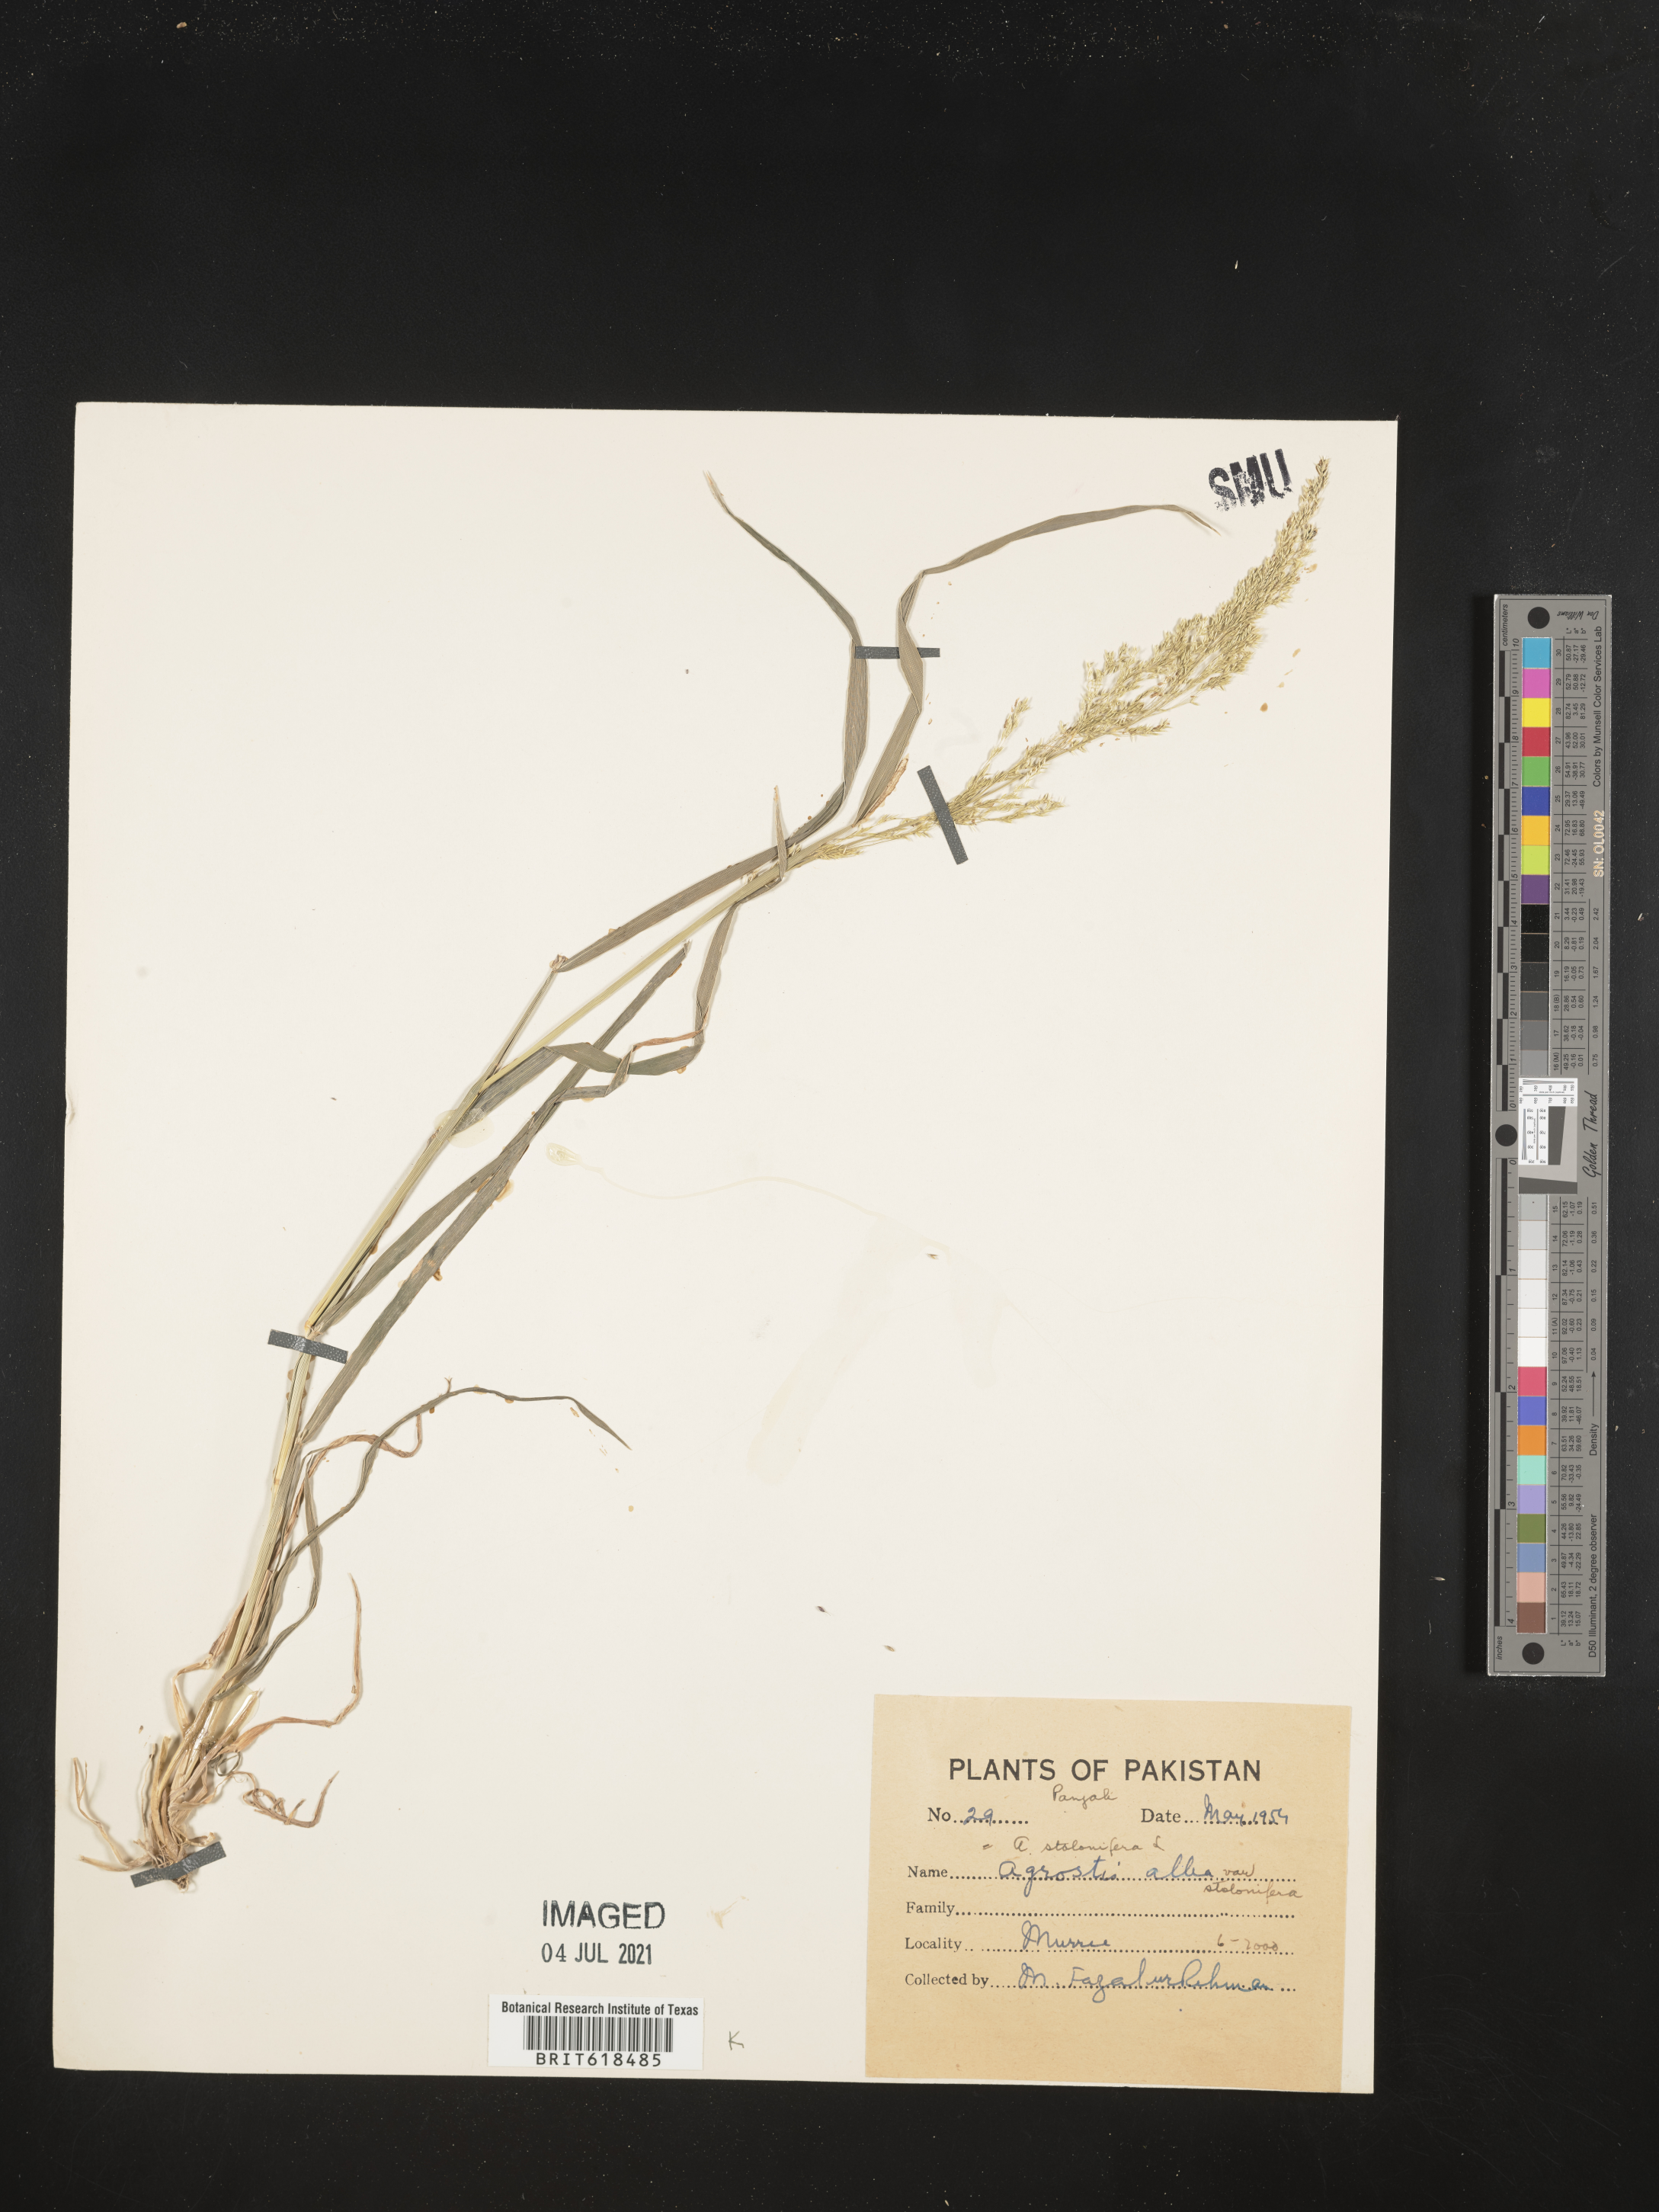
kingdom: Plantae
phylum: Tracheophyta
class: Liliopsida
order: Poales
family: Poaceae
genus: Agrostis
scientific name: Agrostis alba
